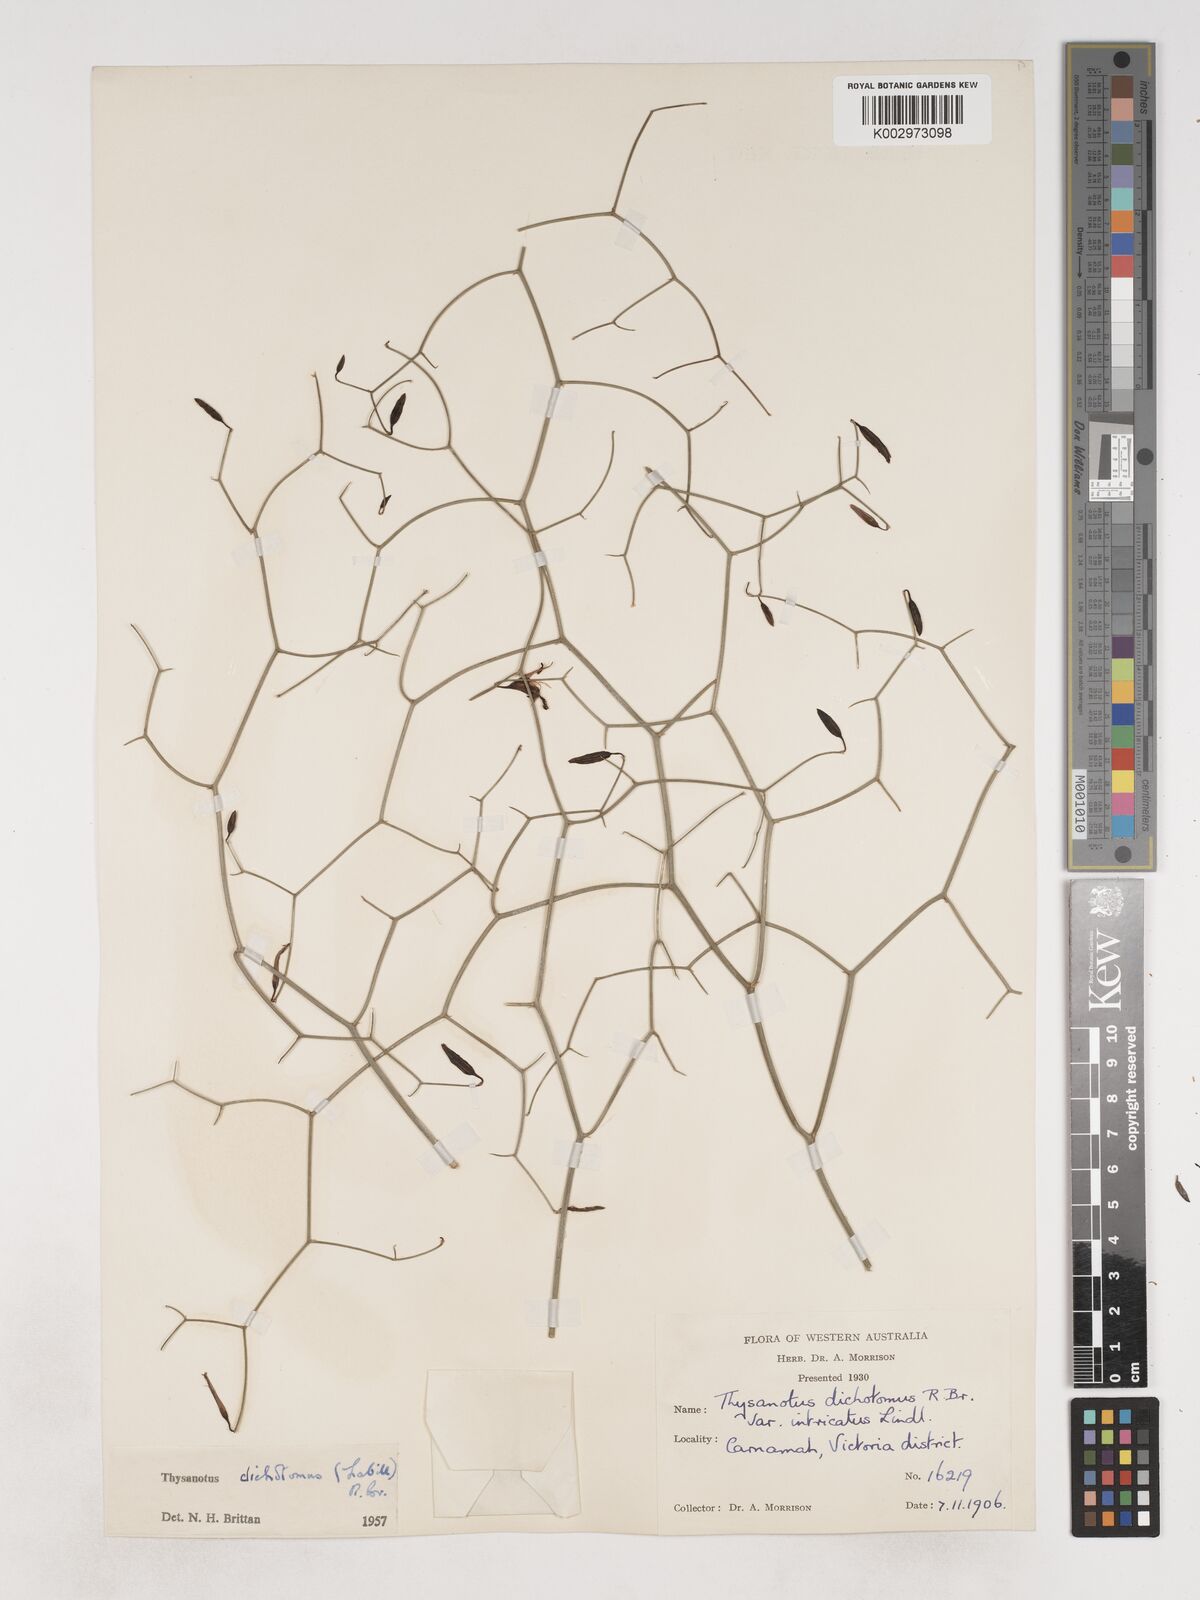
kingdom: Plantae
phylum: Tracheophyta
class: Liliopsida
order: Asparagales
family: Asparagaceae
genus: Thysanotus
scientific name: Thysanotus dichotomus
